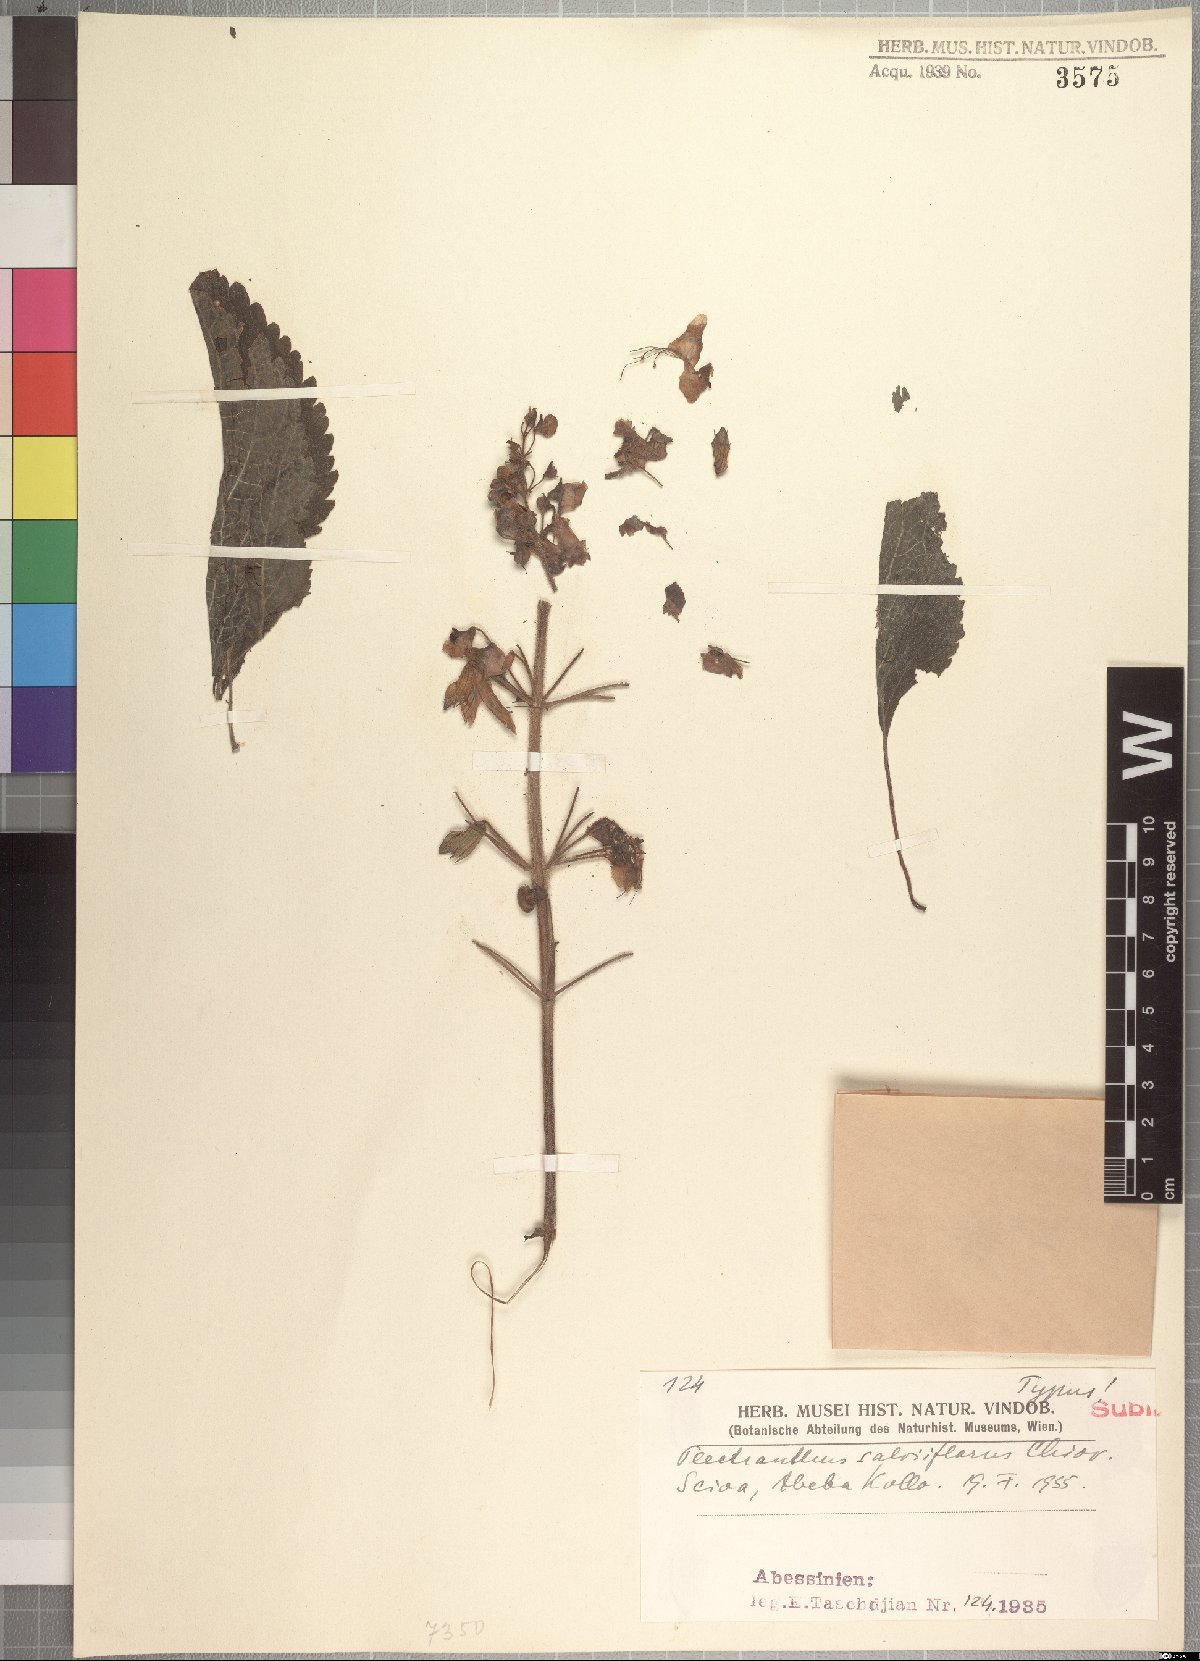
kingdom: Plantae
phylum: Tracheophyta
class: Magnoliopsida
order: Lamiales
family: Lamiaceae
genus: Coleus
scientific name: Coleus garckeanus
